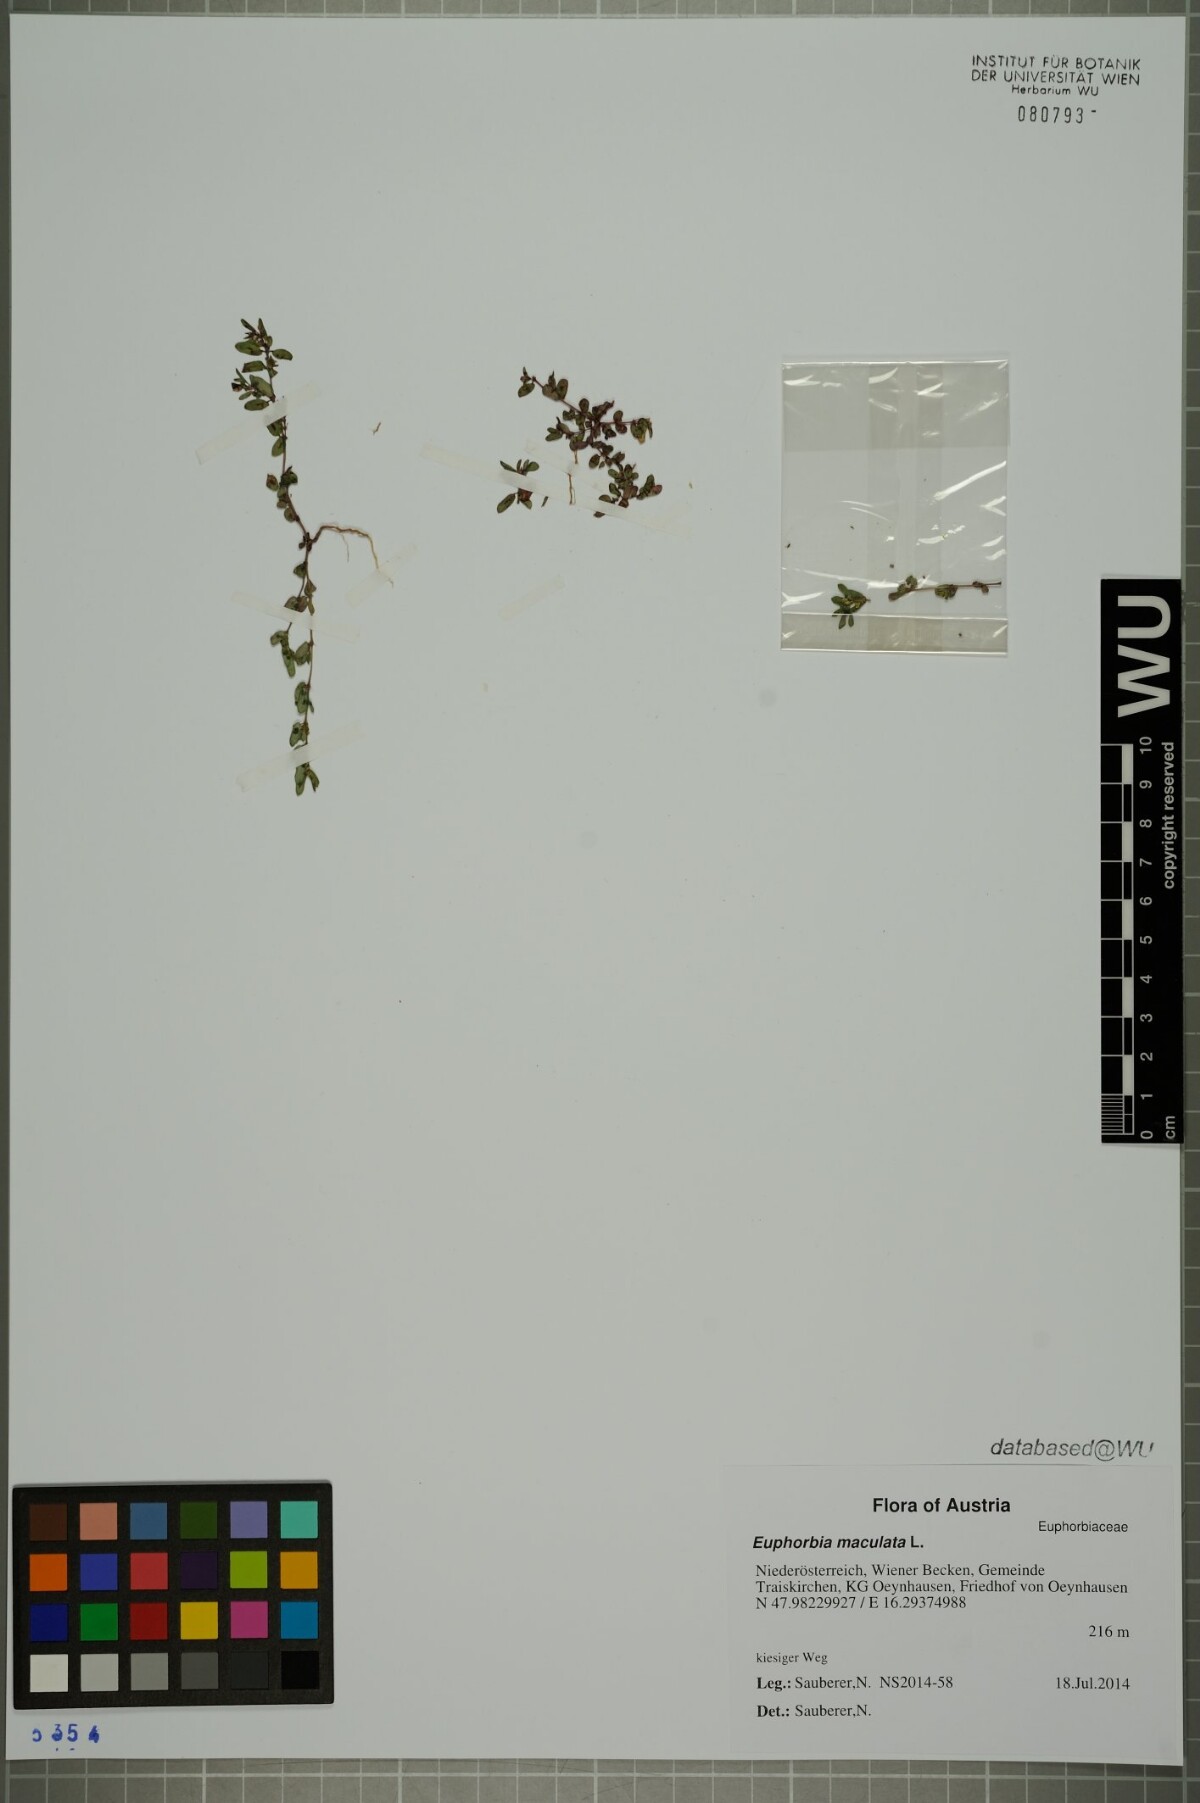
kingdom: Plantae
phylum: Tracheophyta
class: Magnoliopsida
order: Malpighiales
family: Euphorbiaceae
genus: Euphorbia
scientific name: Euphorbia maculata
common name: Spotted spurge
